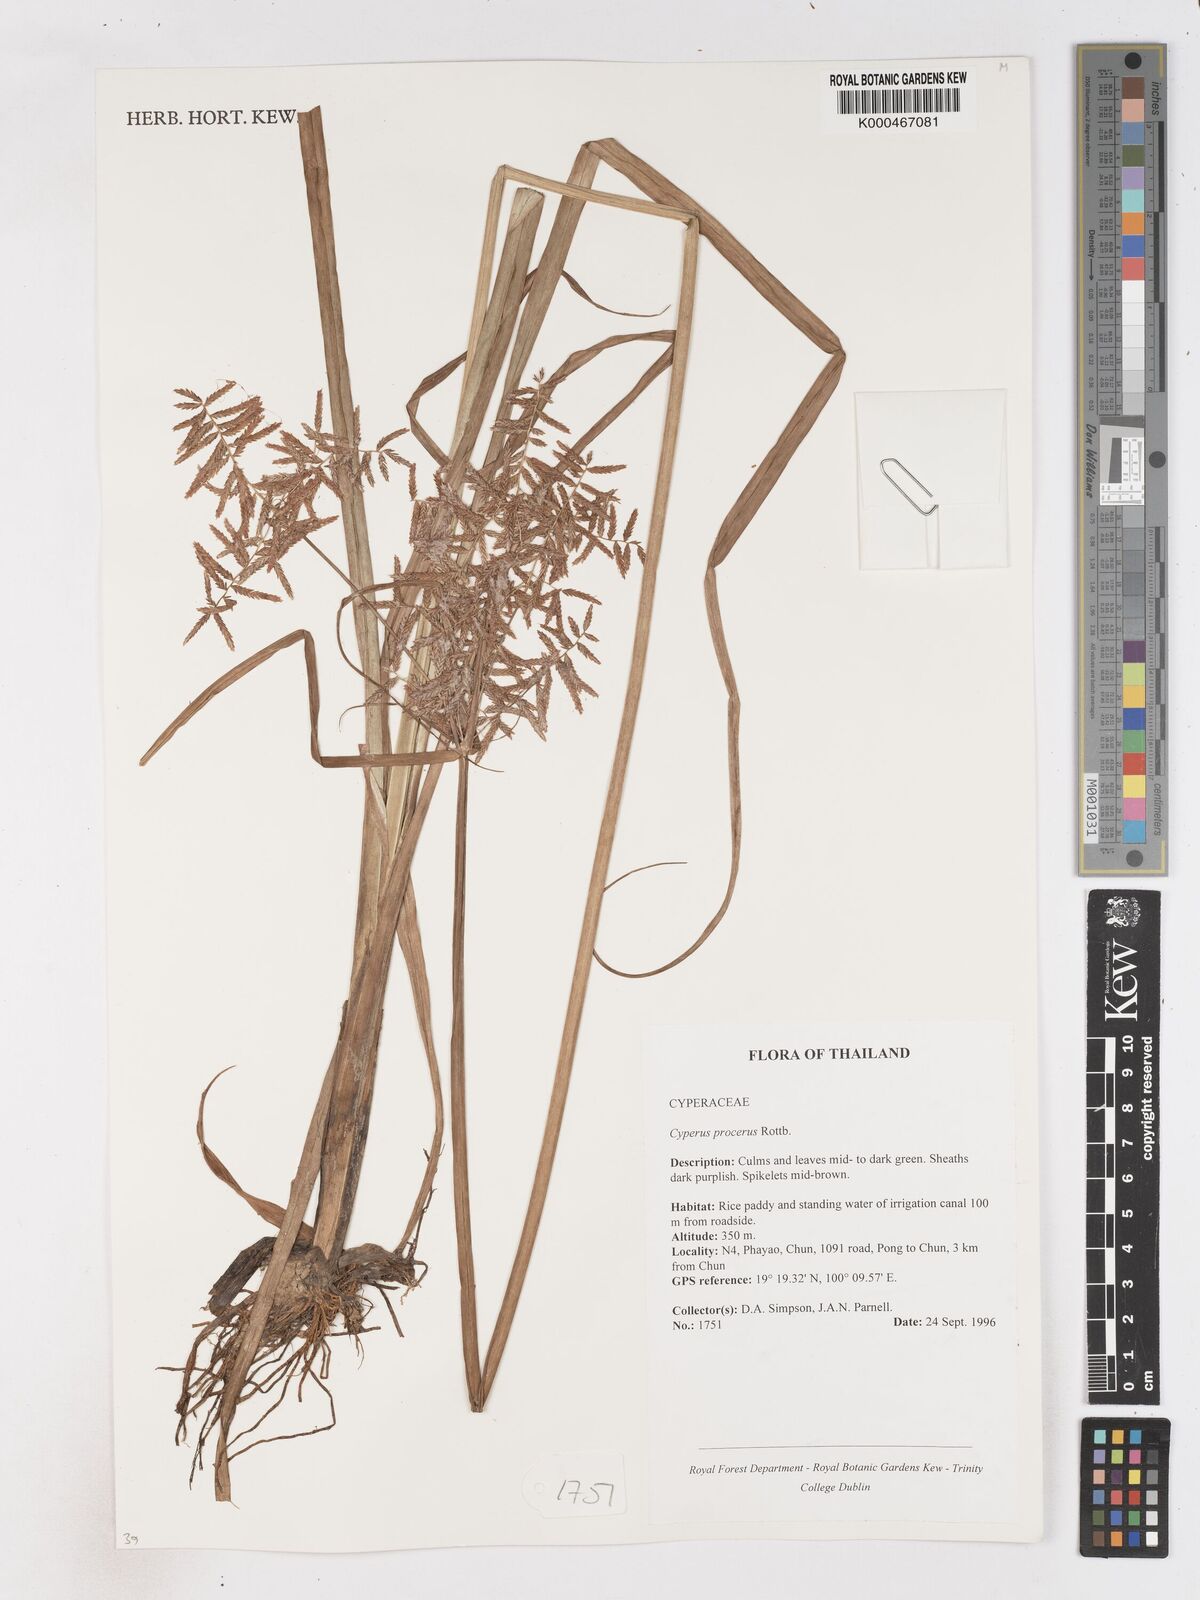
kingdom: Plantae
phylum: Tracheophyta
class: Liliopsida
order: Poales
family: Cyperaceae
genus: Cyperus
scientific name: Cyperus procerus
